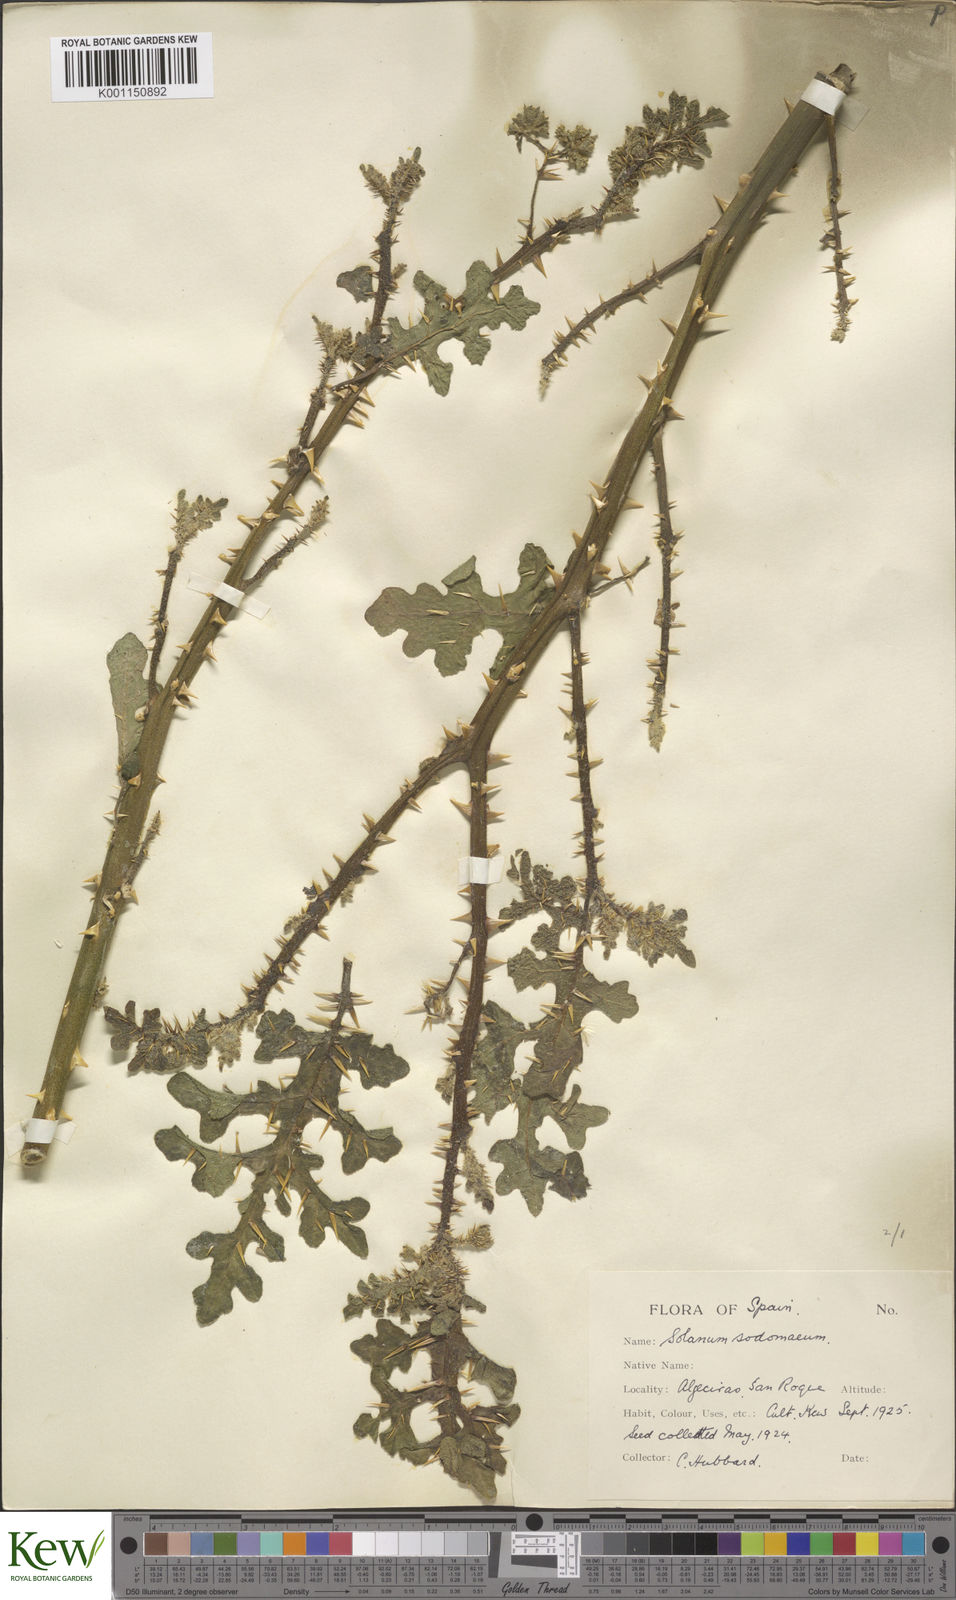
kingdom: Plantae
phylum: Tracheophyta
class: Magnoliopsida
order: Solanales
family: Solanaceae
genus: Solanum
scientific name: Solanum anguivi
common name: Forest bitterberry
